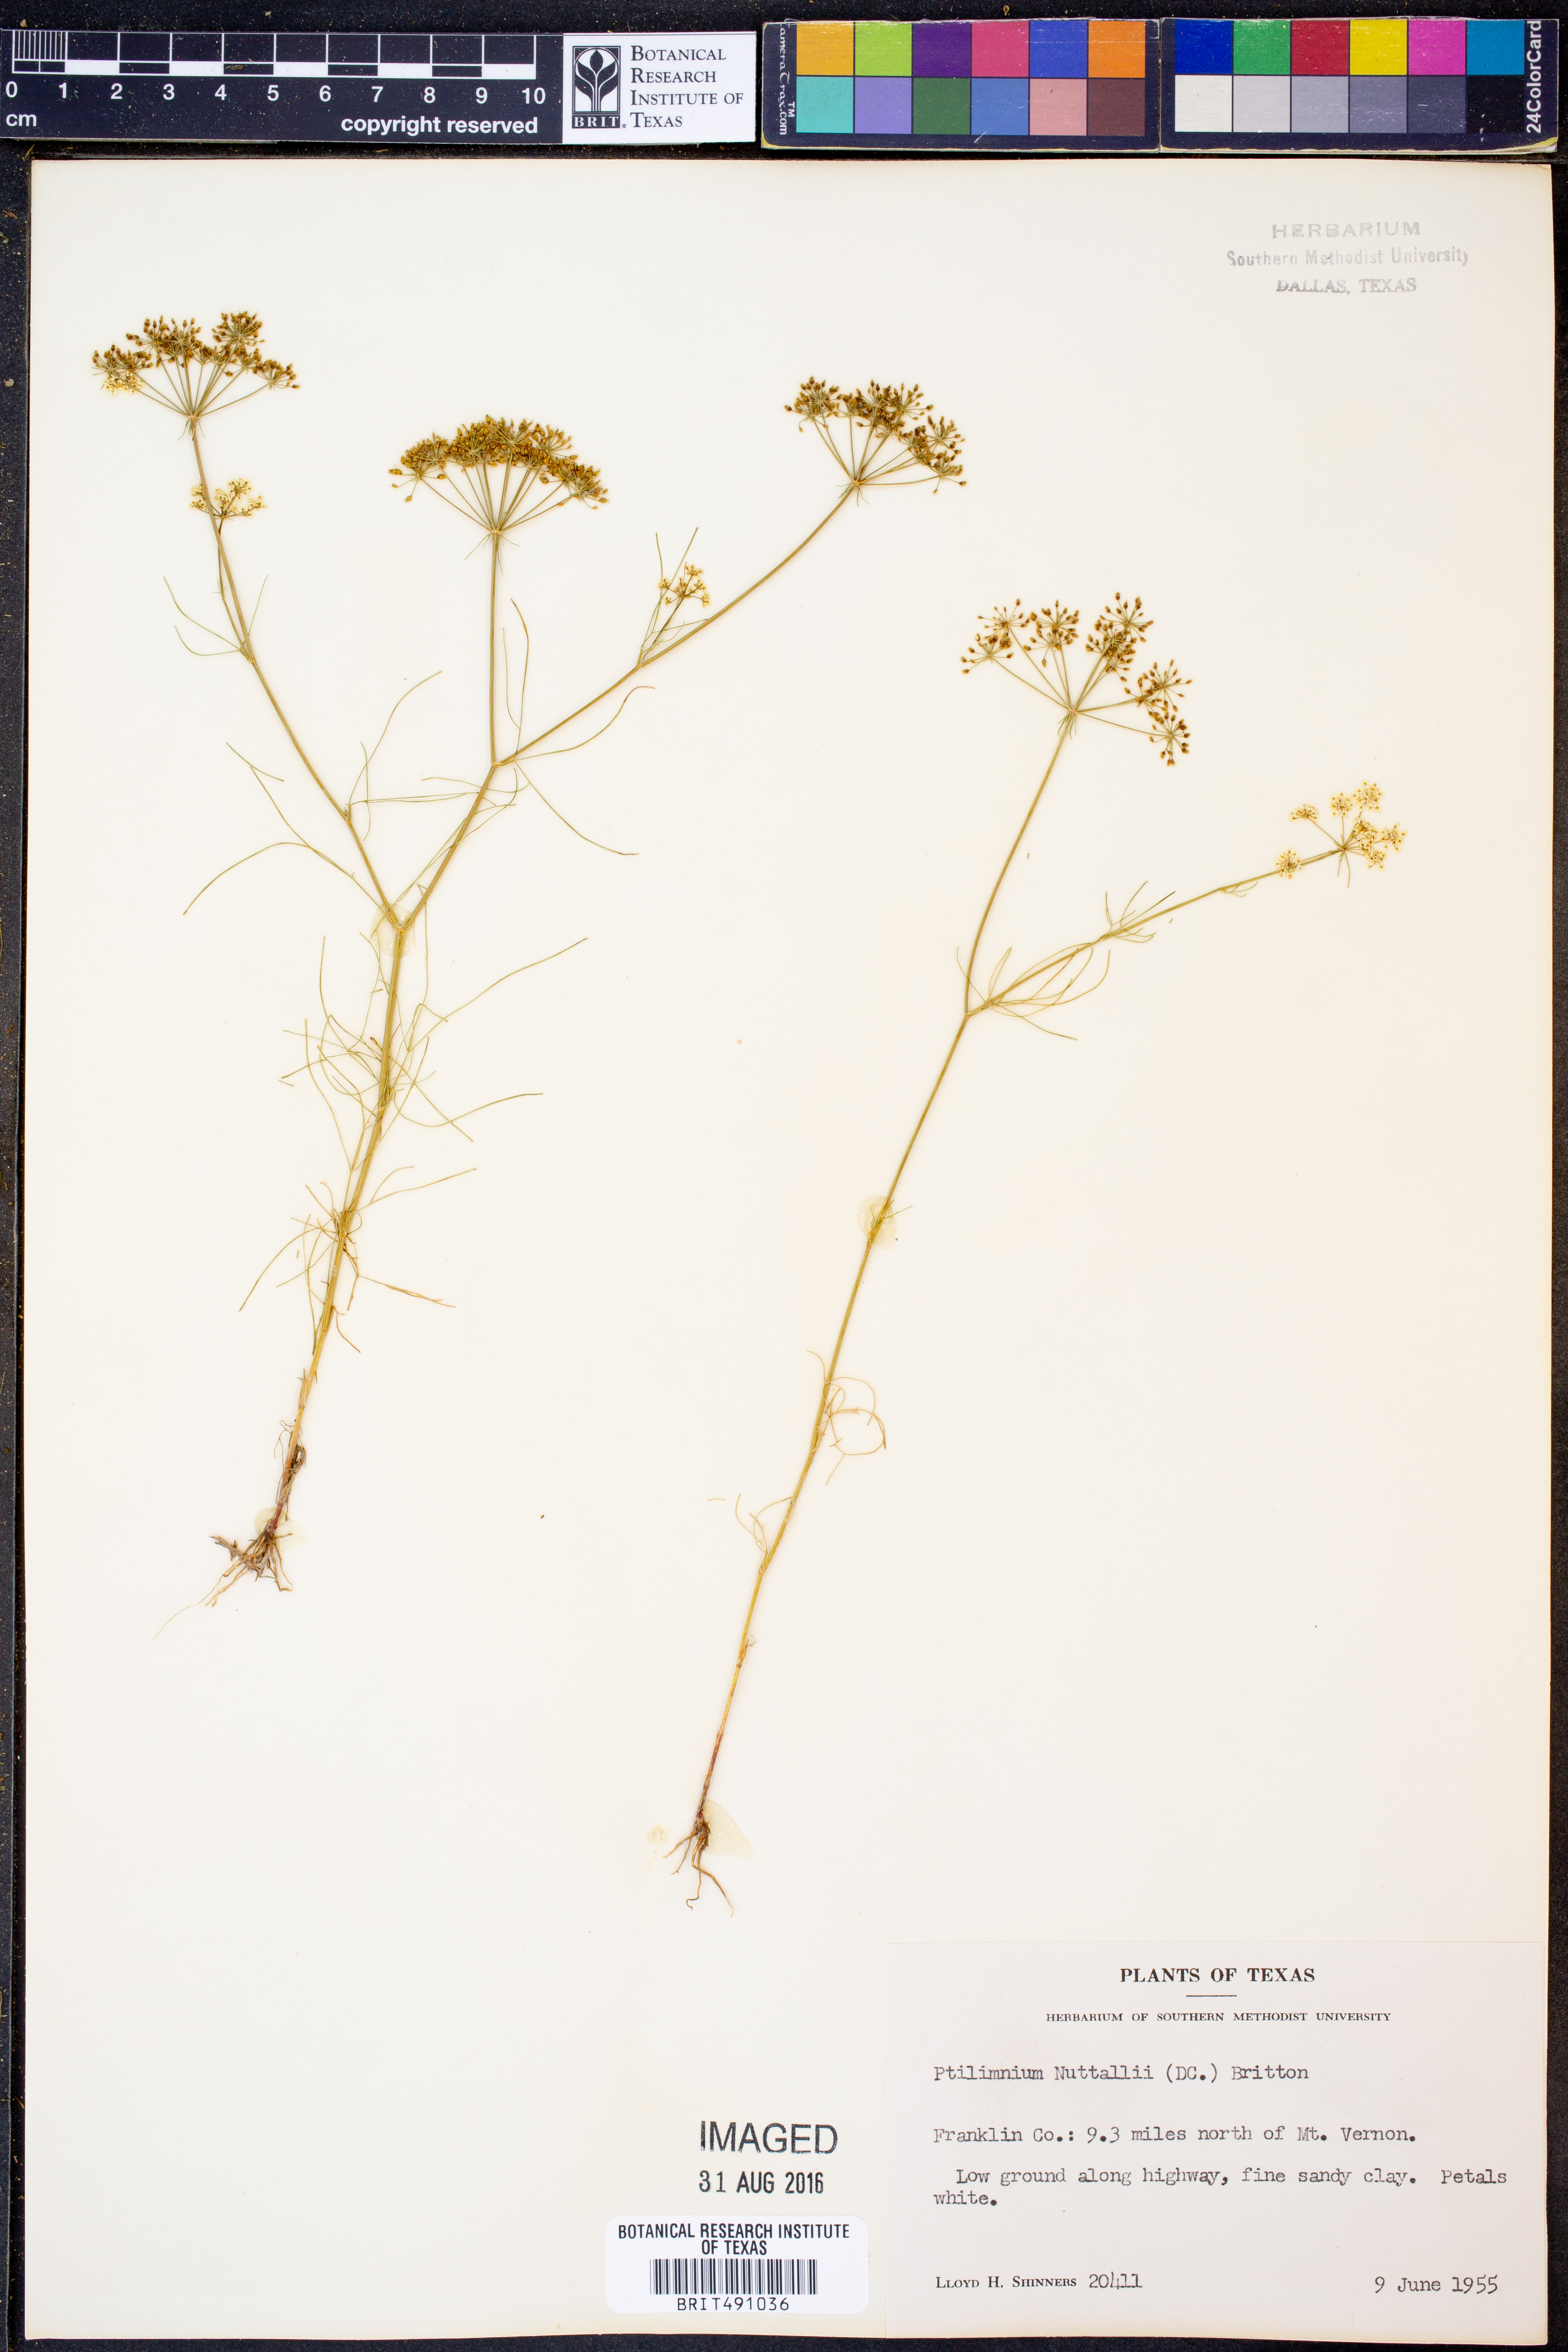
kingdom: Plantae
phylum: Tracheophyta
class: Magnoliopsida
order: Apiales
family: Apiaceae
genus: Ptilimnium
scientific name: Ptilimnium nuttallii
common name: Ozark bishop's-weed
